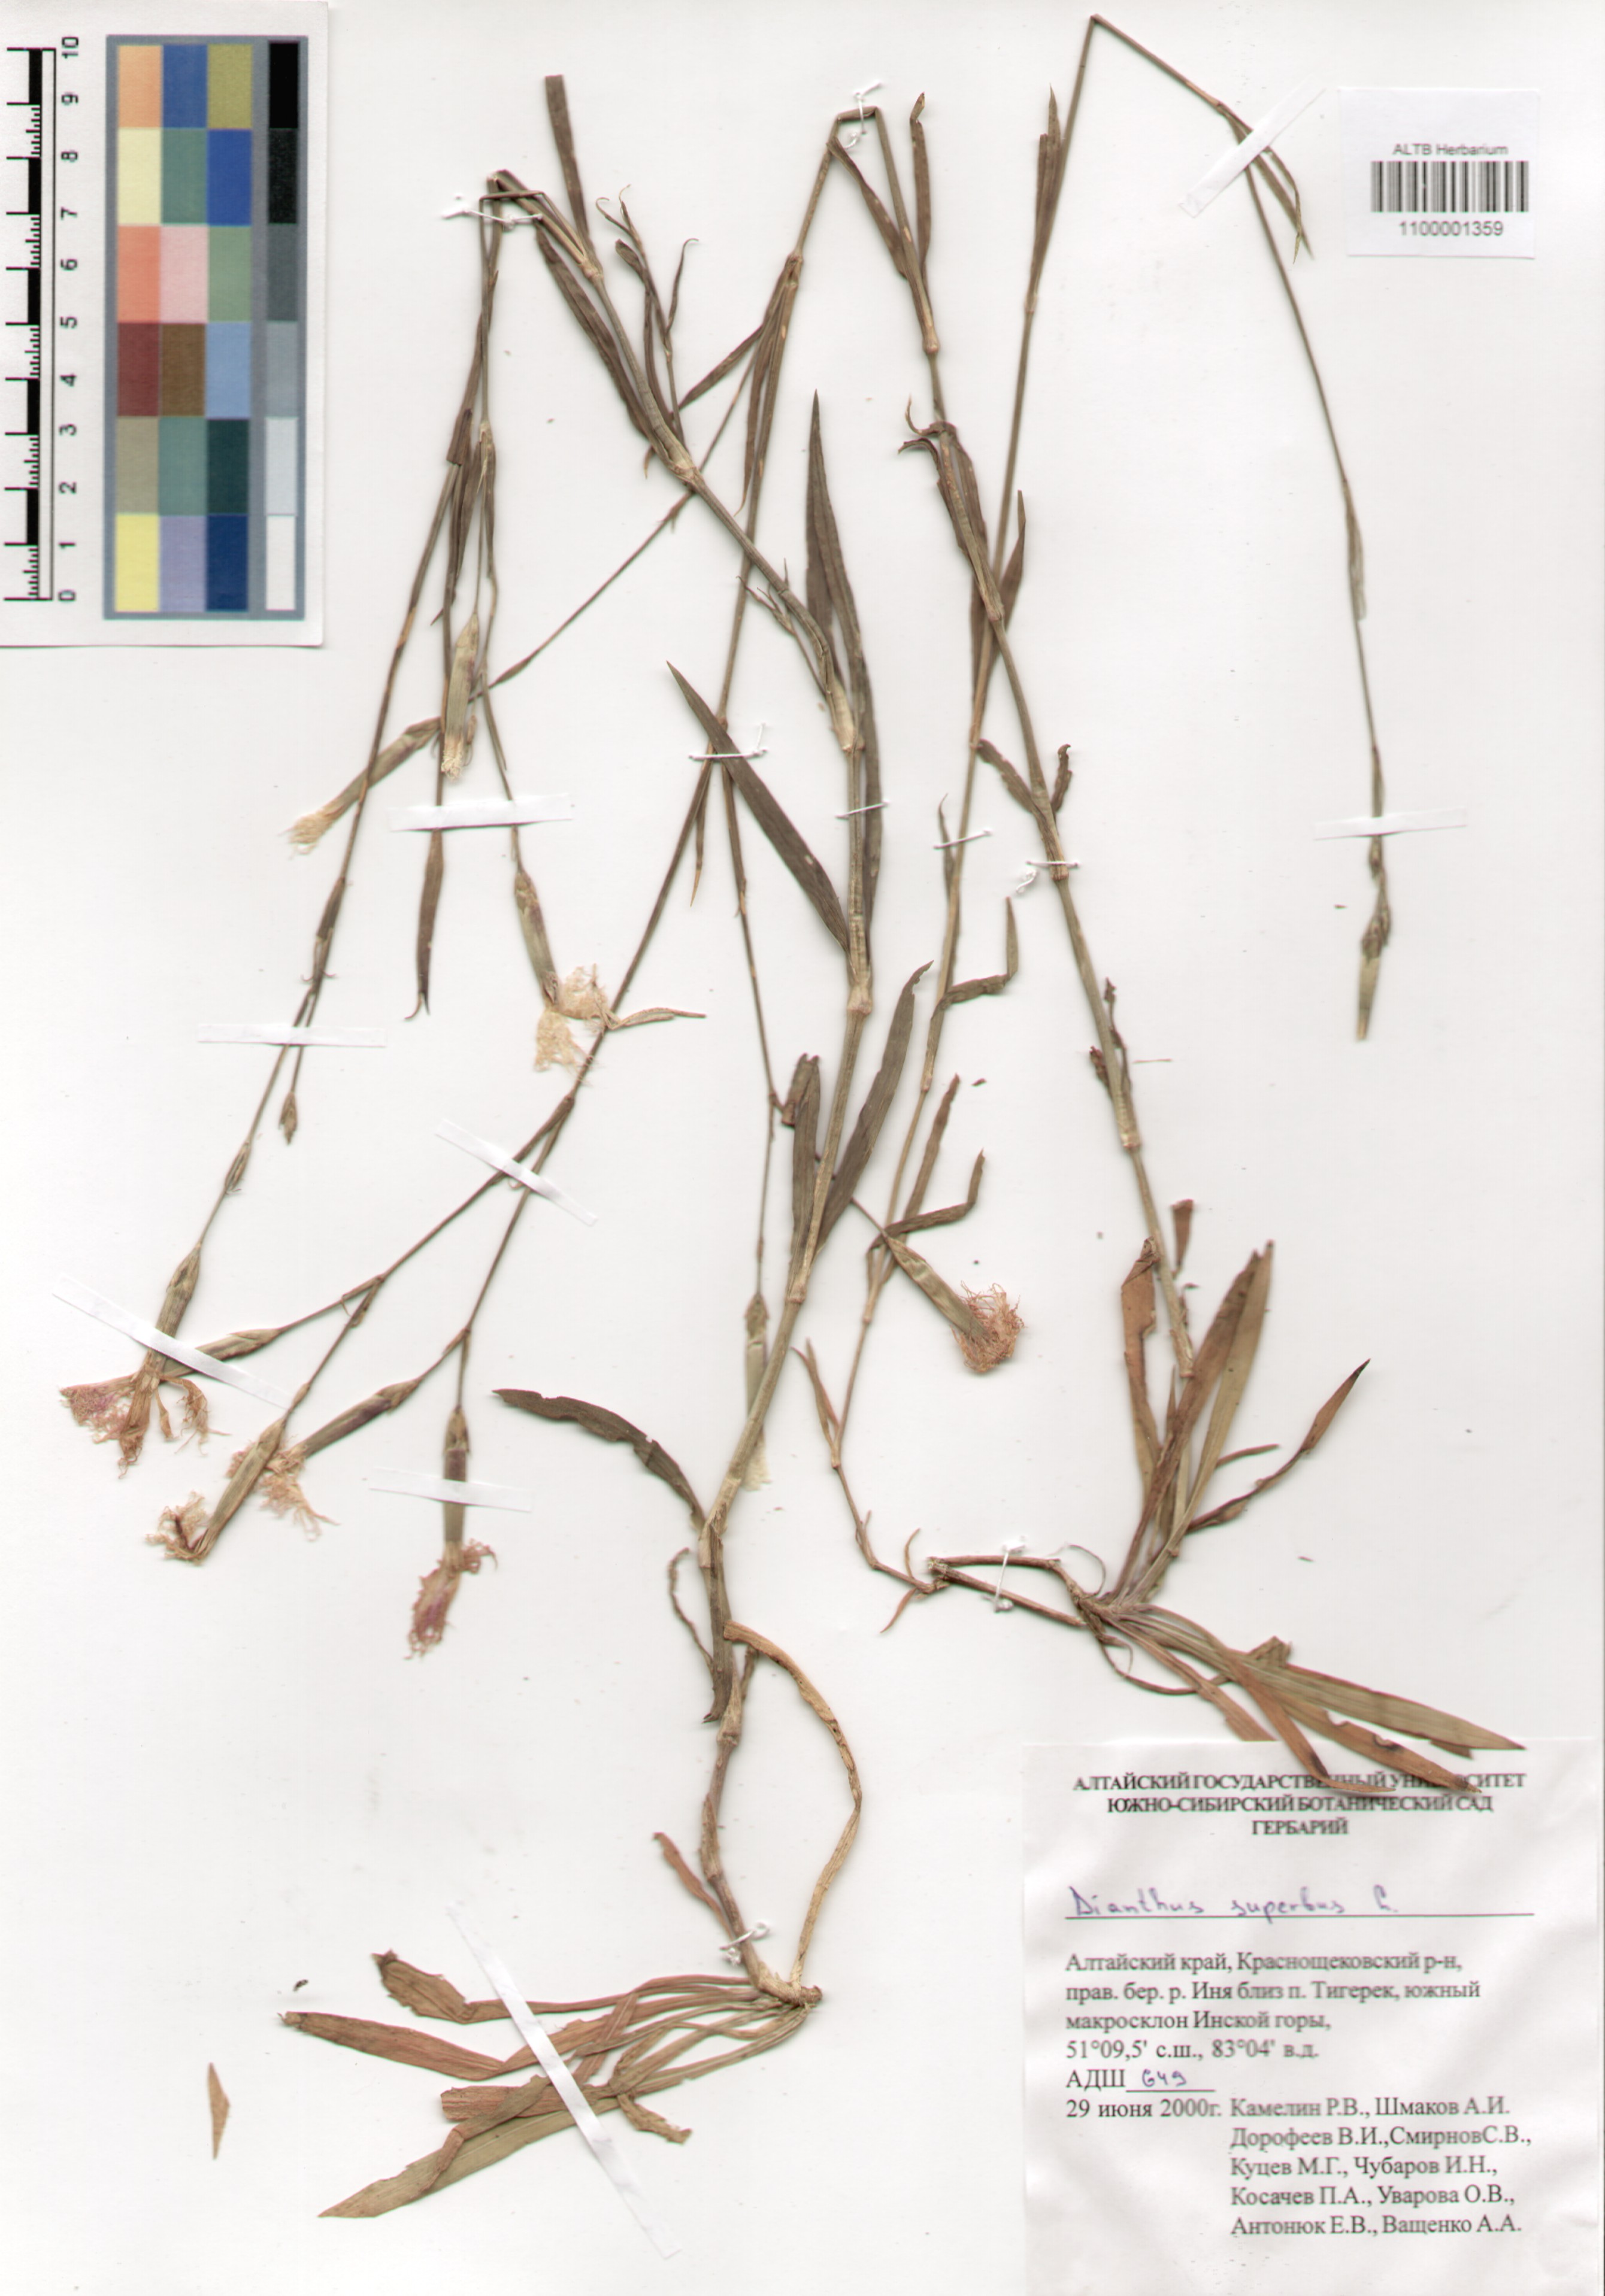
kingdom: Plantae
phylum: Tracheophyta
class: Magnoliopsida
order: Caryophyllales
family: Caryophyllaceae
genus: Dianthus
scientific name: Dianthus superbus
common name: Fringed pink
